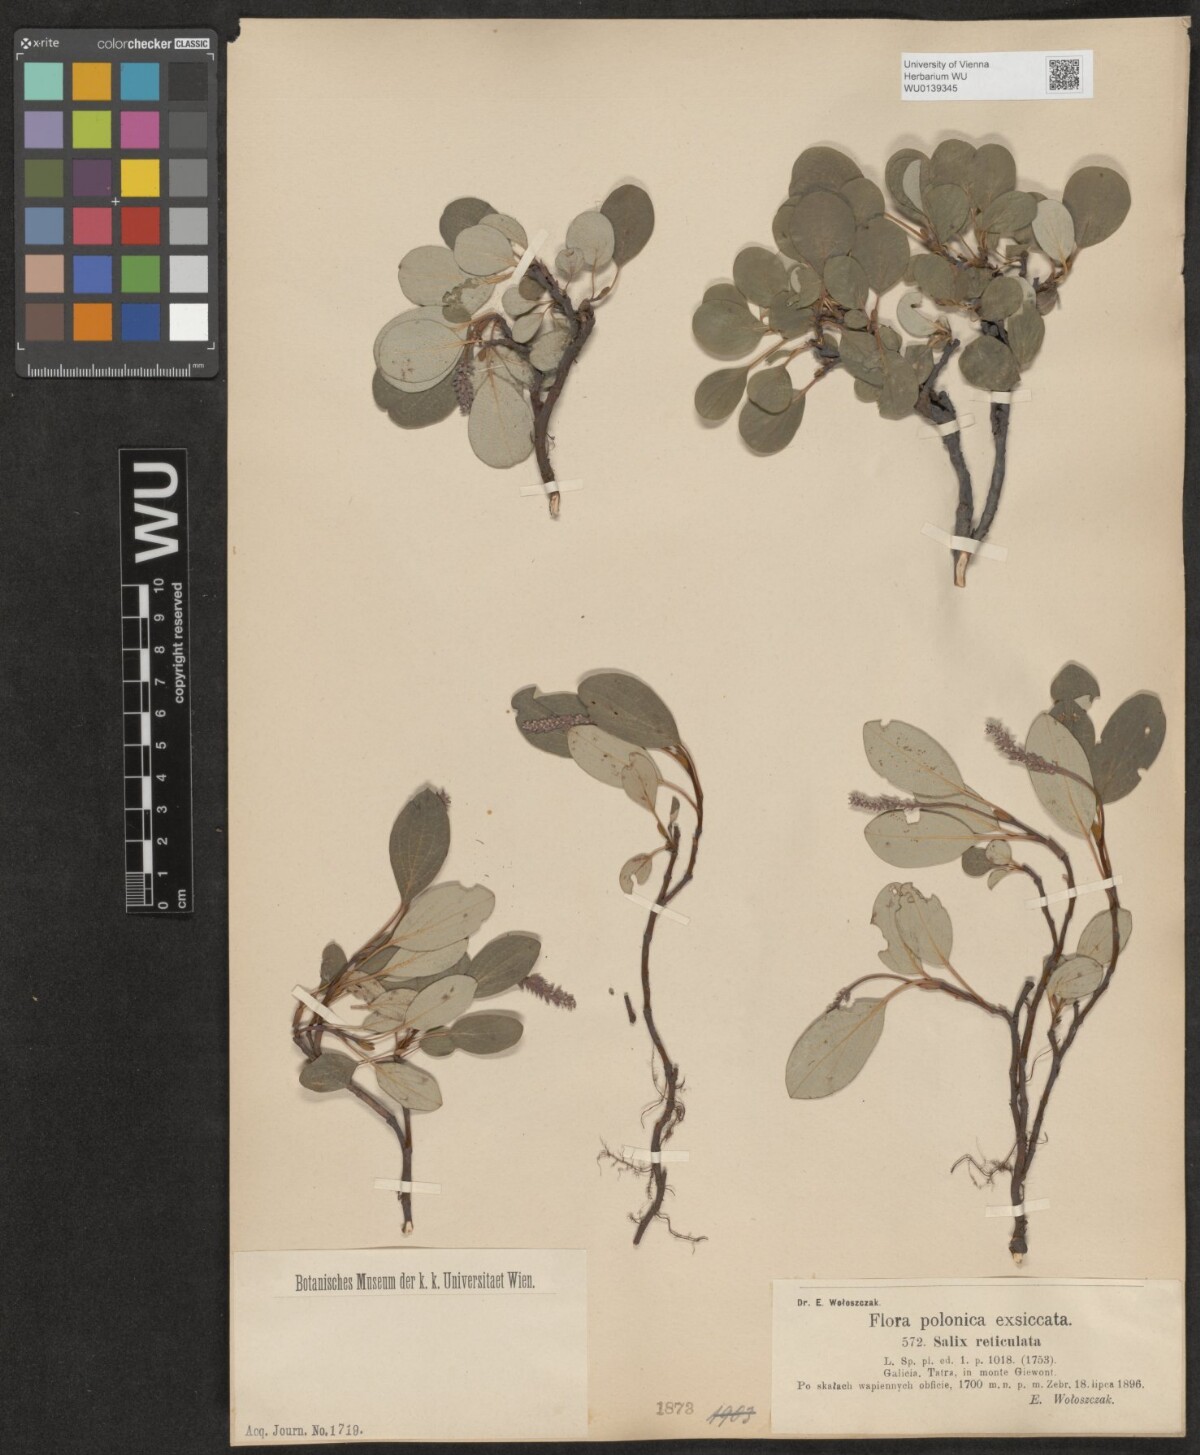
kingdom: Plantae
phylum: Tracheophyta
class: Magnoliopsida
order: Malpighiales
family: Salicaceae
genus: Salix
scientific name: Salix reticulata
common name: Net-leaved willow
